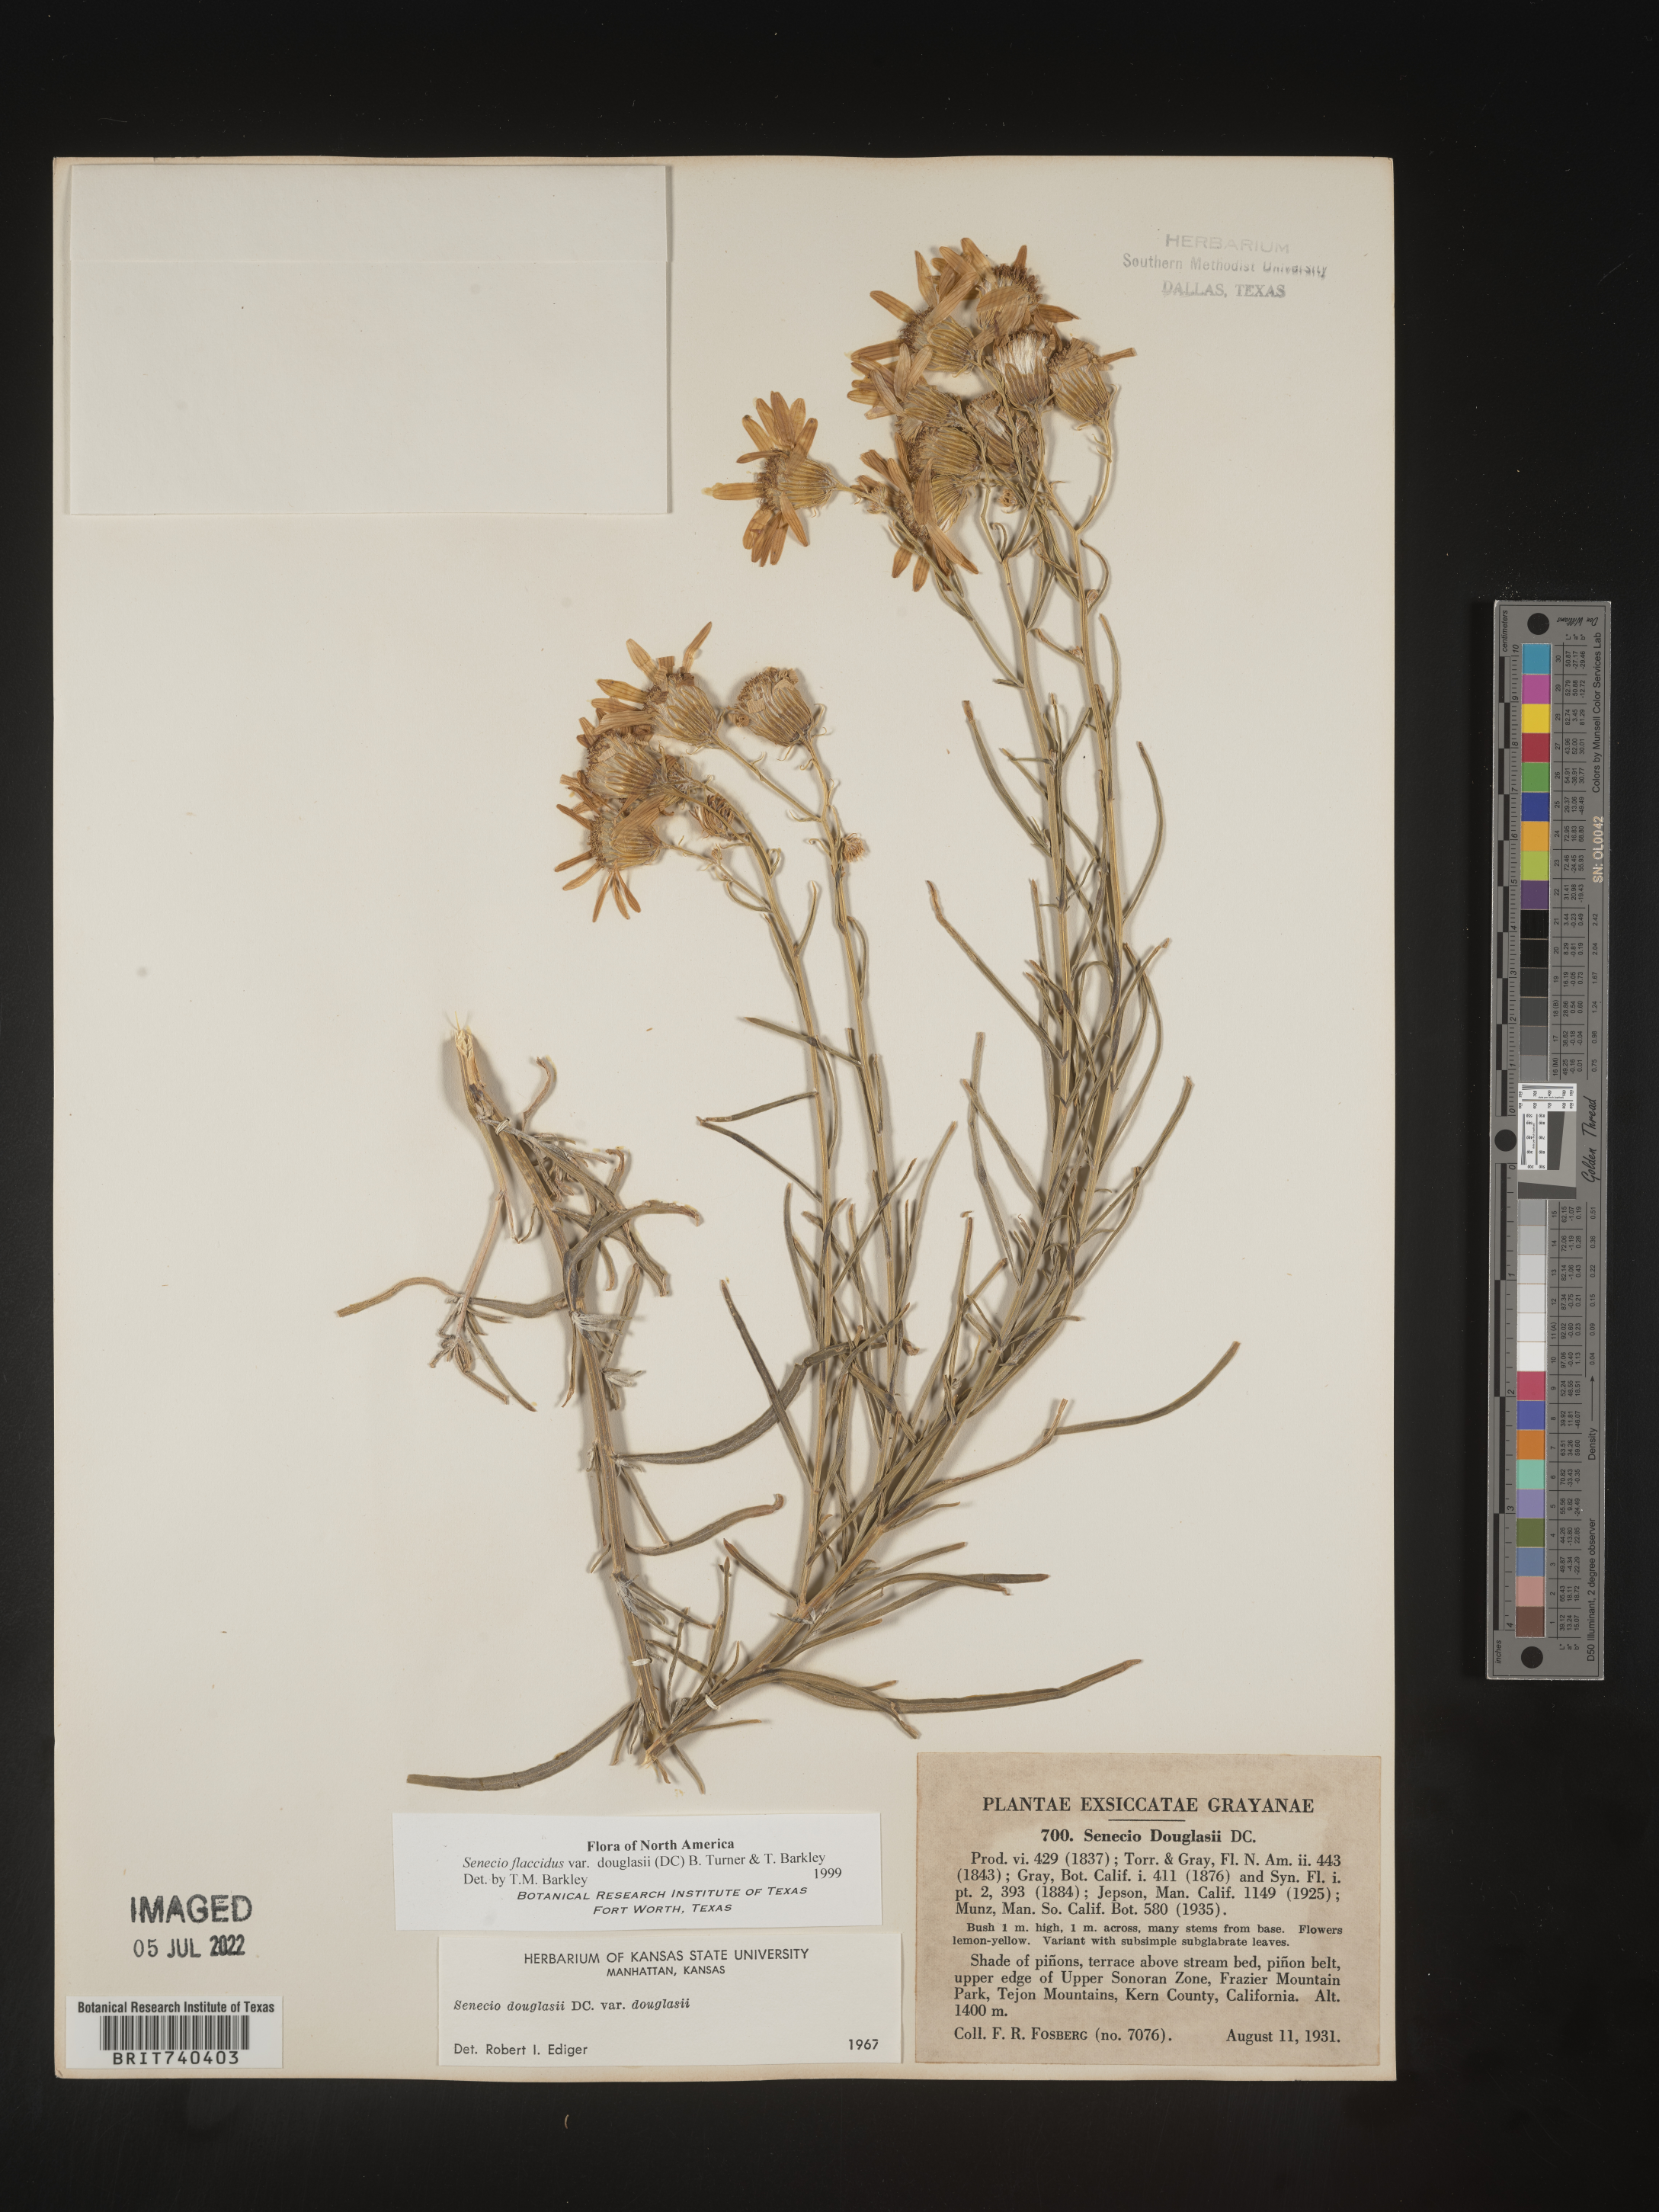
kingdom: Plantae
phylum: Tracheophyta
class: Magnoliopsida
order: Asterales
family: Asteraceae
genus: Senecio
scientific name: Senecio flaccidus
